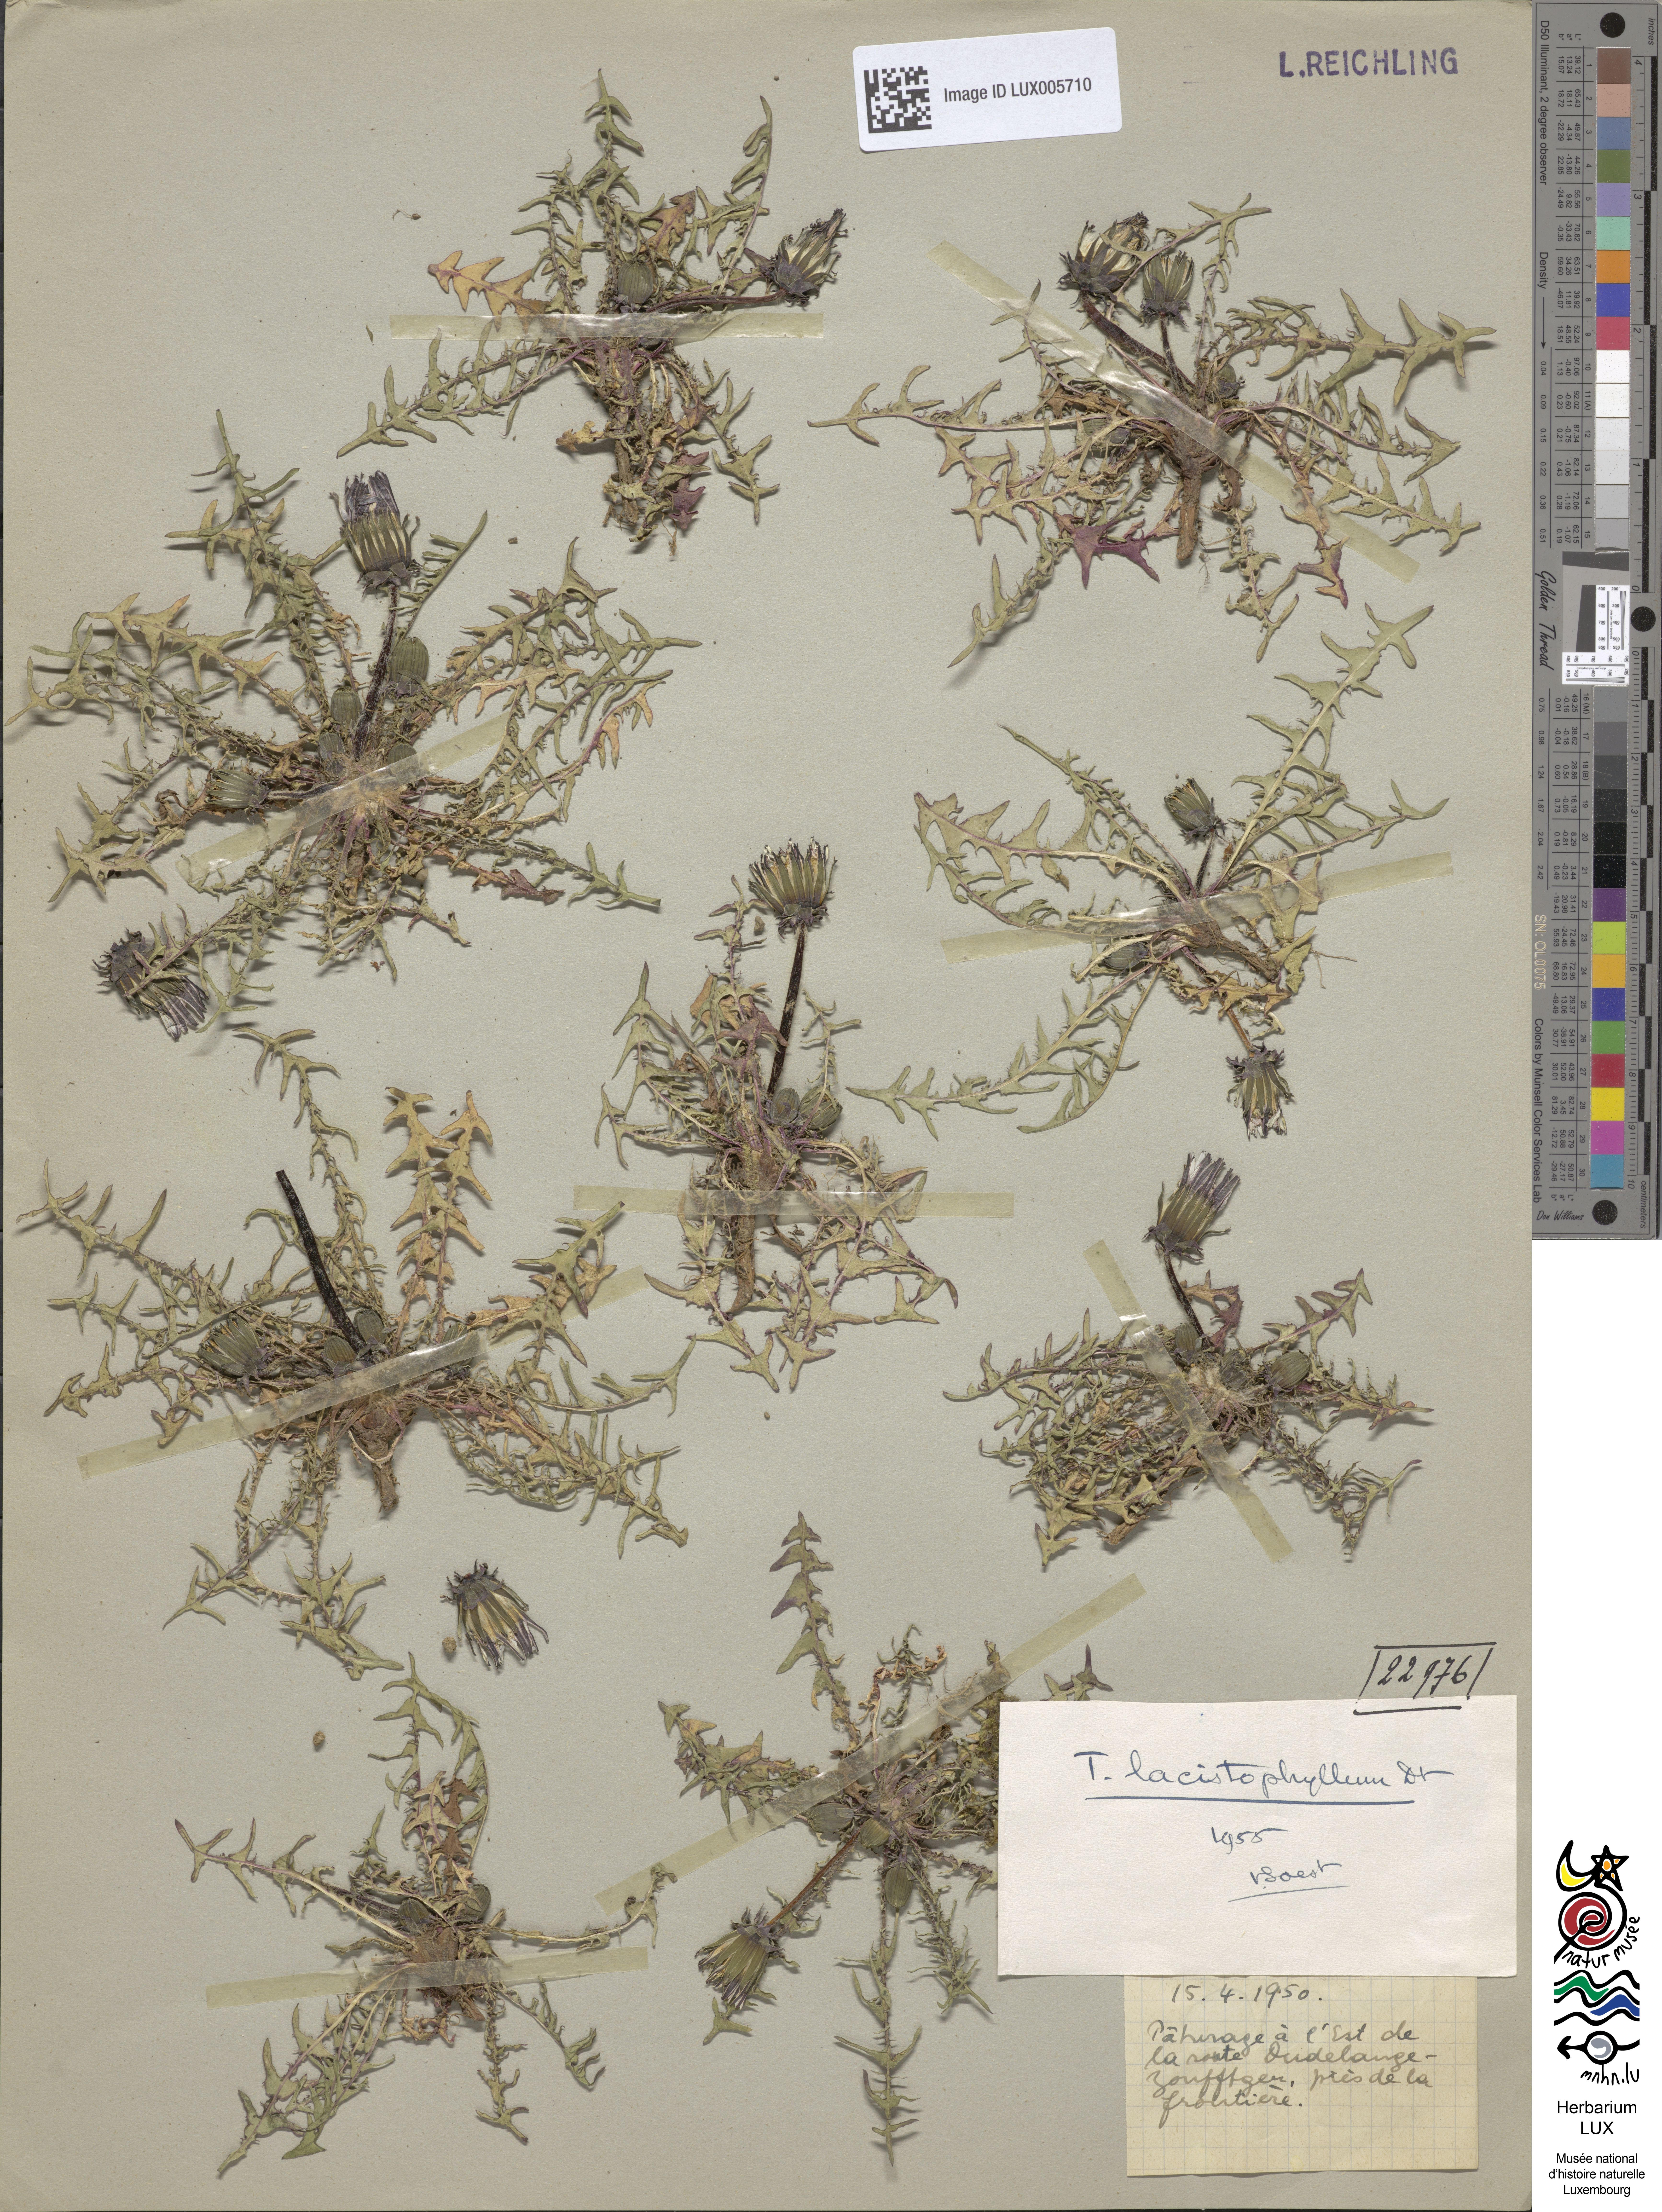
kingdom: Plantae
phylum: Tracheophyta
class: Magnoliopsida
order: Asterales
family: Asteraceae
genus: Taraxacum
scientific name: Taraxacum lacistophyllum
